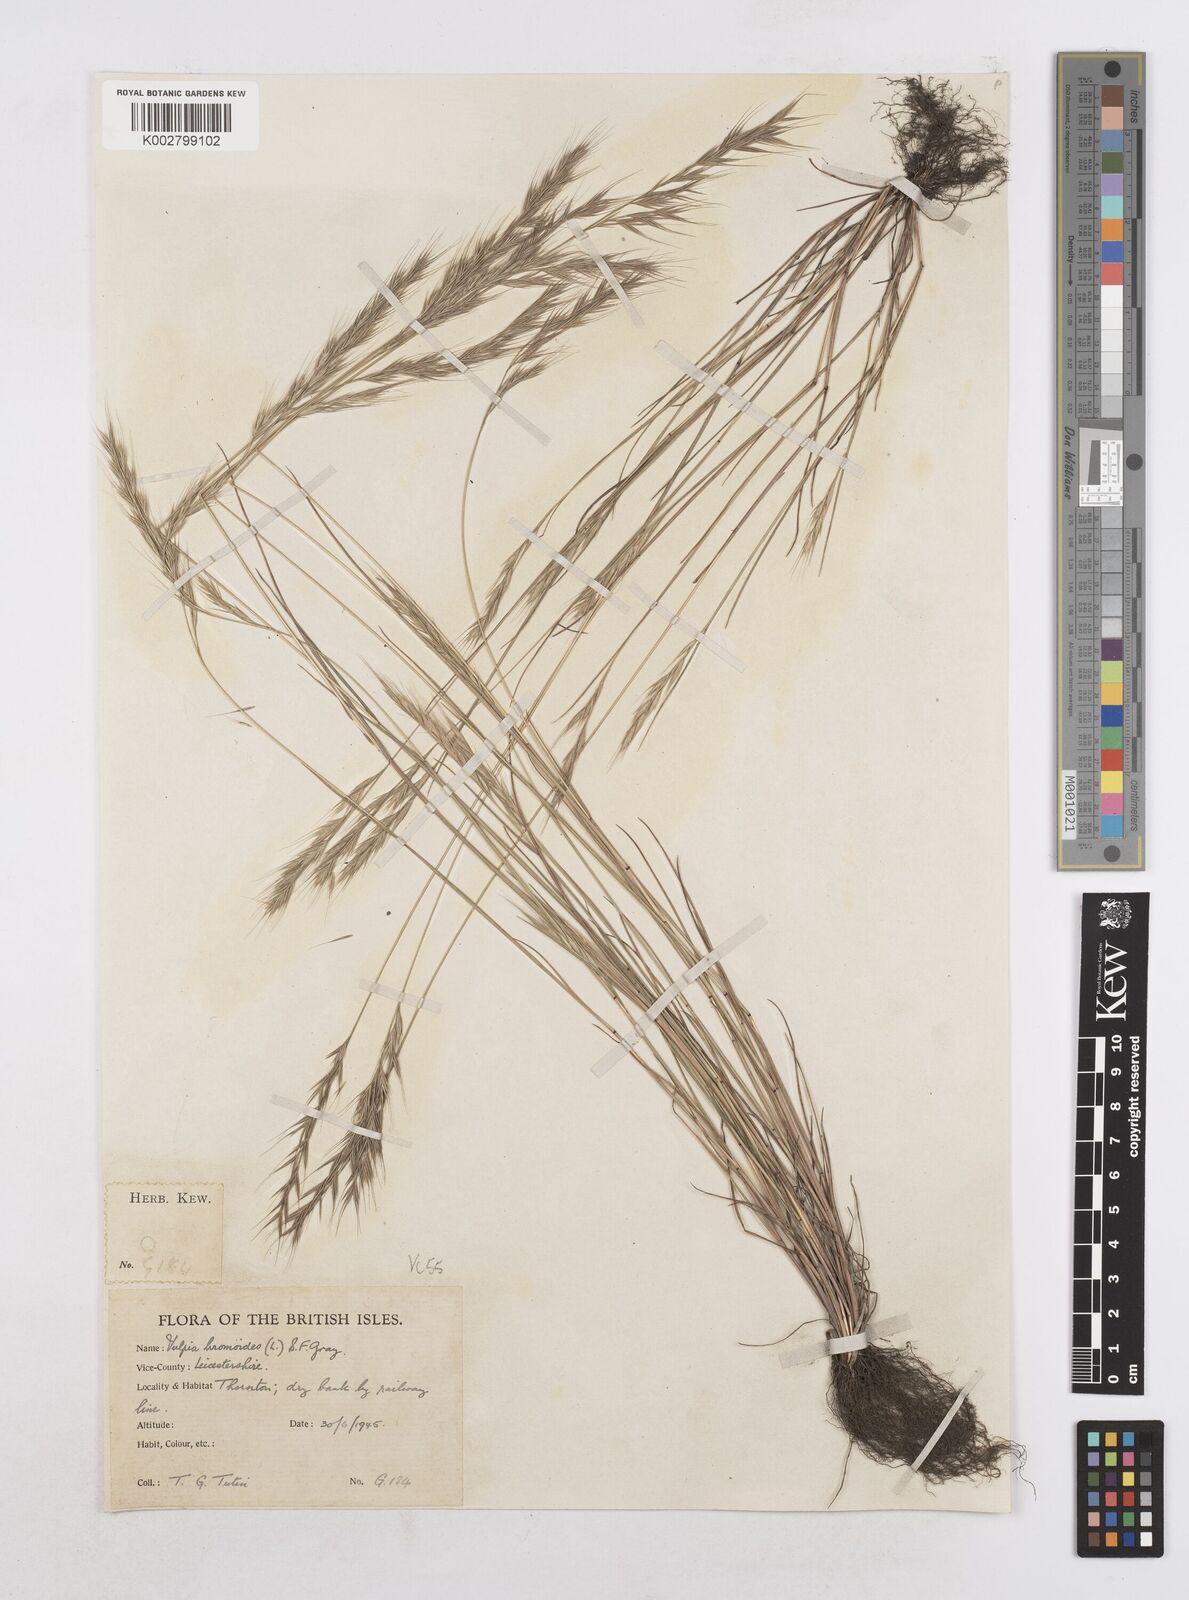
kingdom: Plantae
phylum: Tracheophyta
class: Liliopsida
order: Poales
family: Poaceae
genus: Festuca
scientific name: Festuca bromoides
